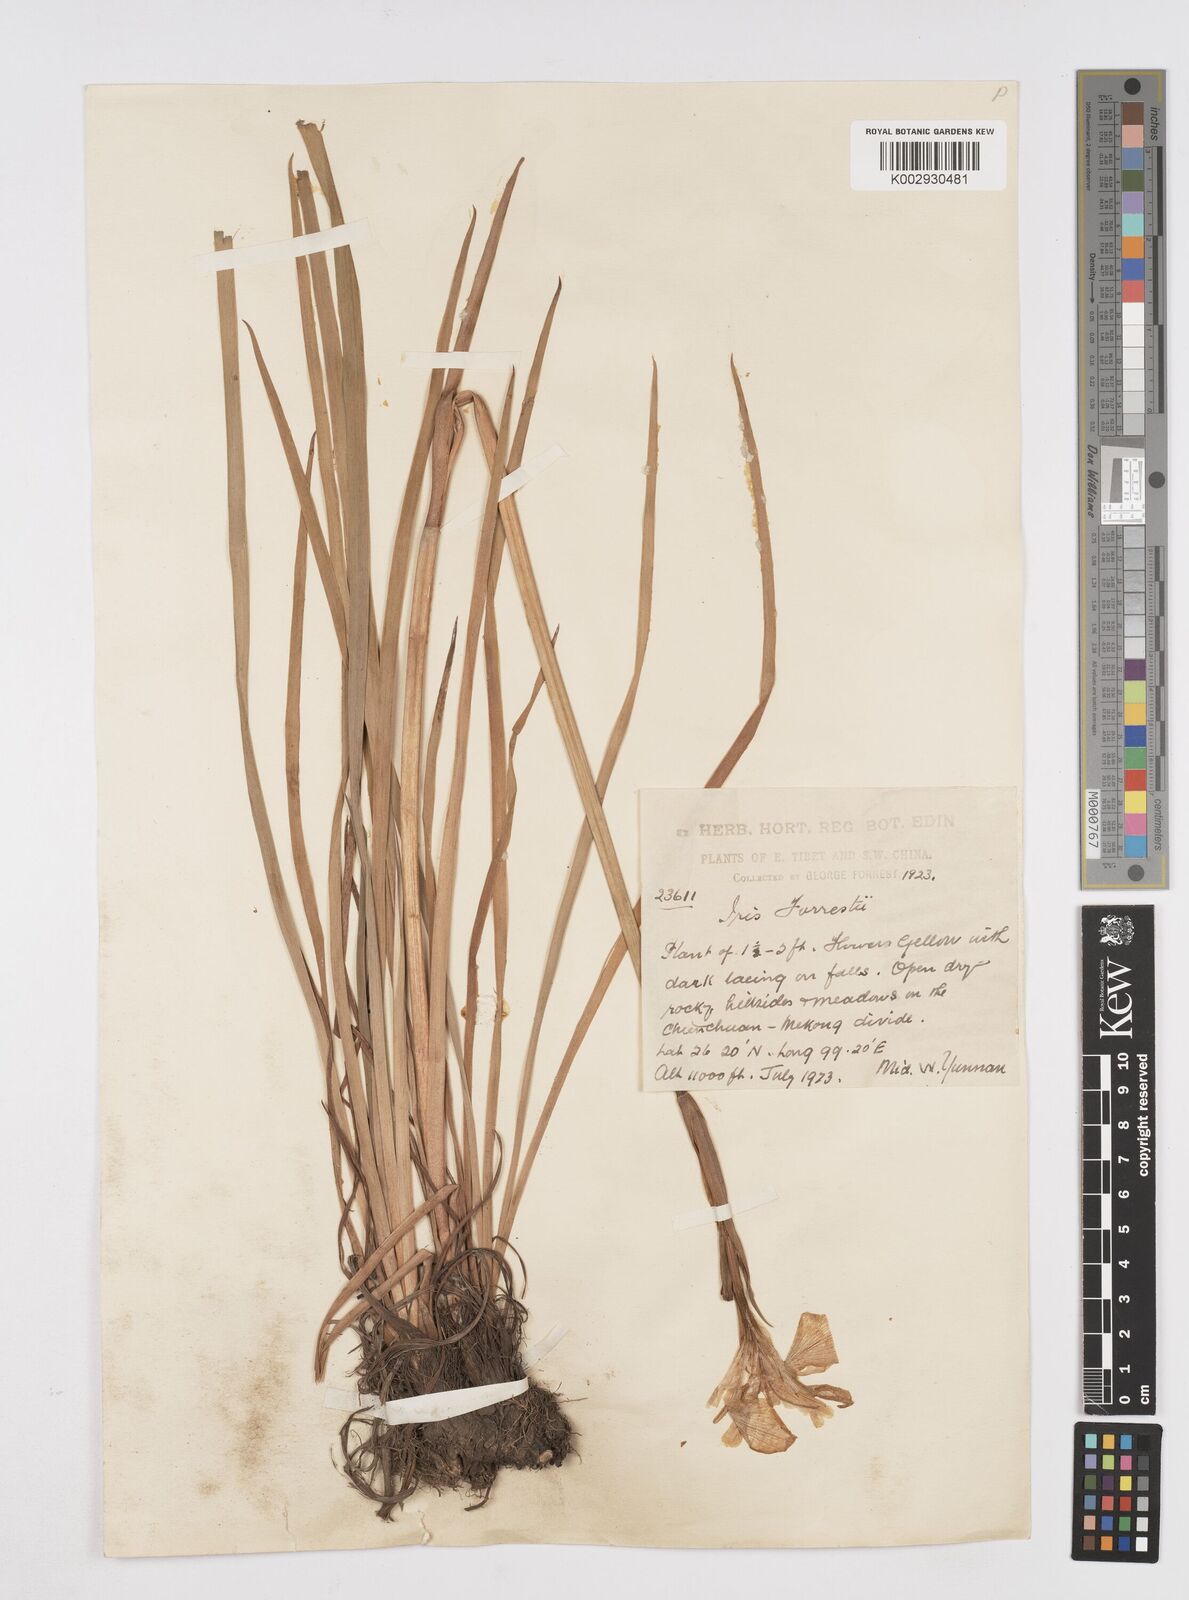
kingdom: Plantae
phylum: Tracheophyta
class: Liliopsida
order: Asparagales
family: Iridaceae
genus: Iris
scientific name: Iris wilsonii
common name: Yellow-flower iris
